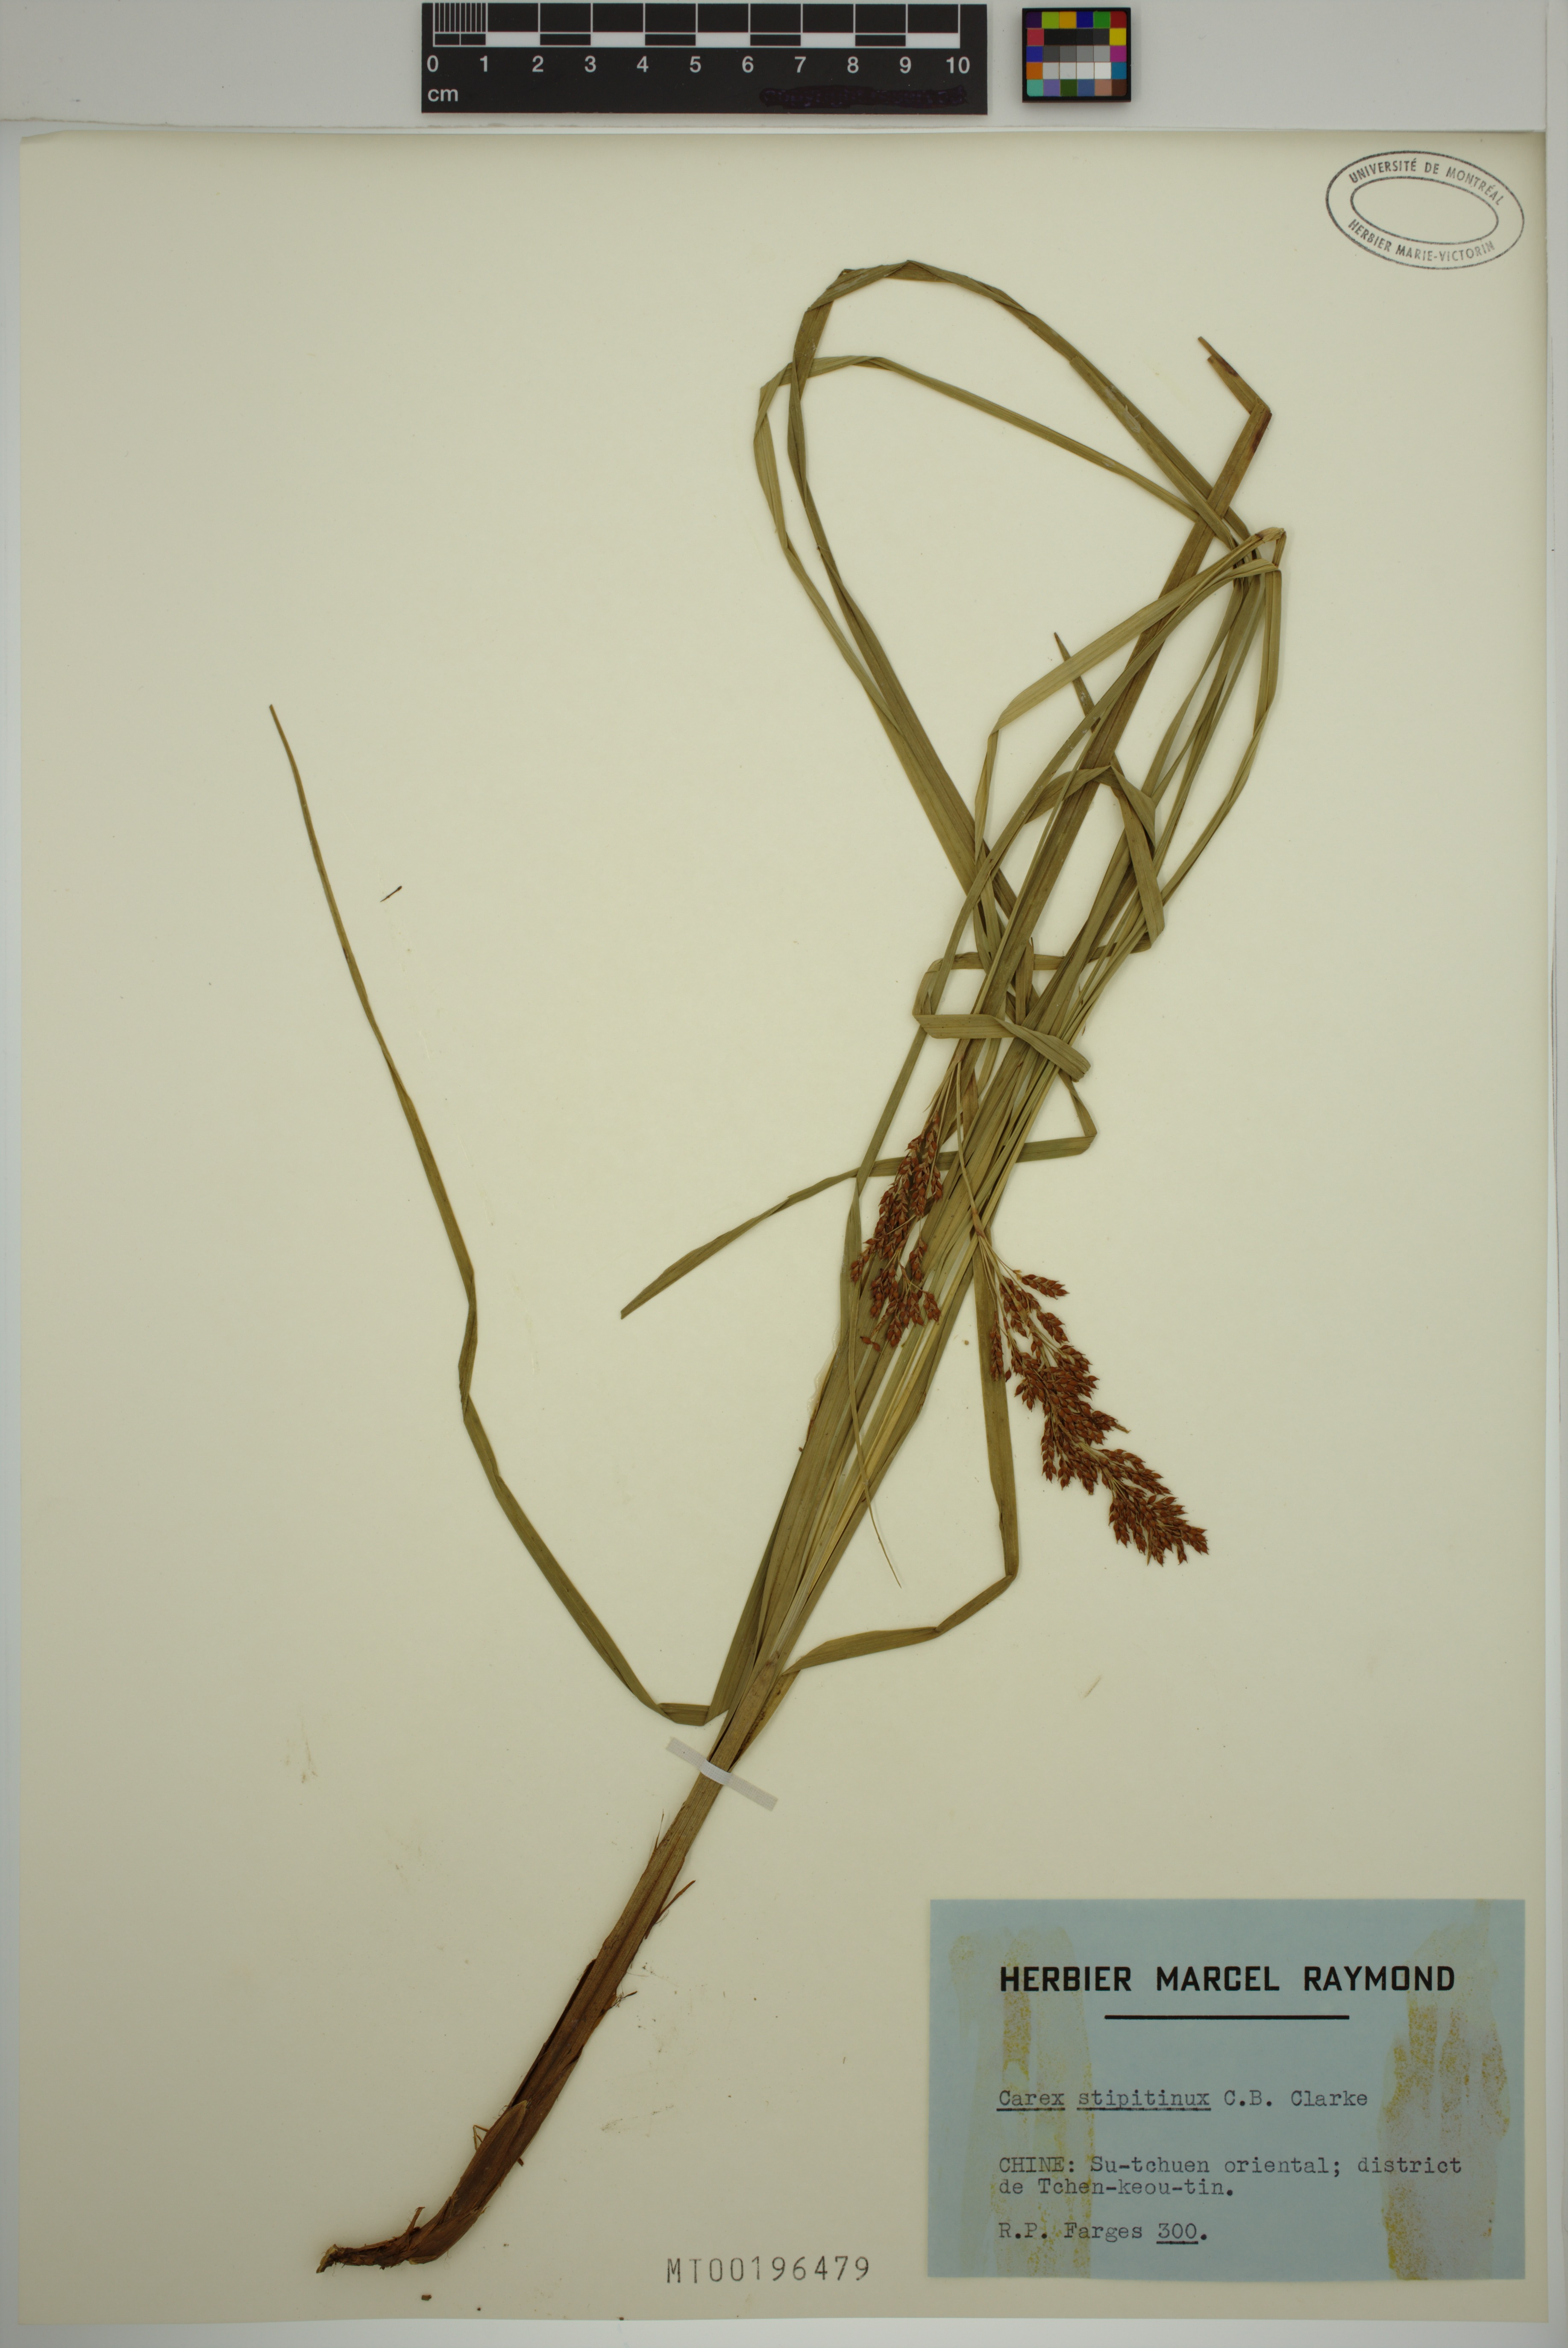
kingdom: Plantae
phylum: Tracheophyta
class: Liliopsida
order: Poales
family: Cyperaceae
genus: Carex
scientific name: Carex stipitinux
